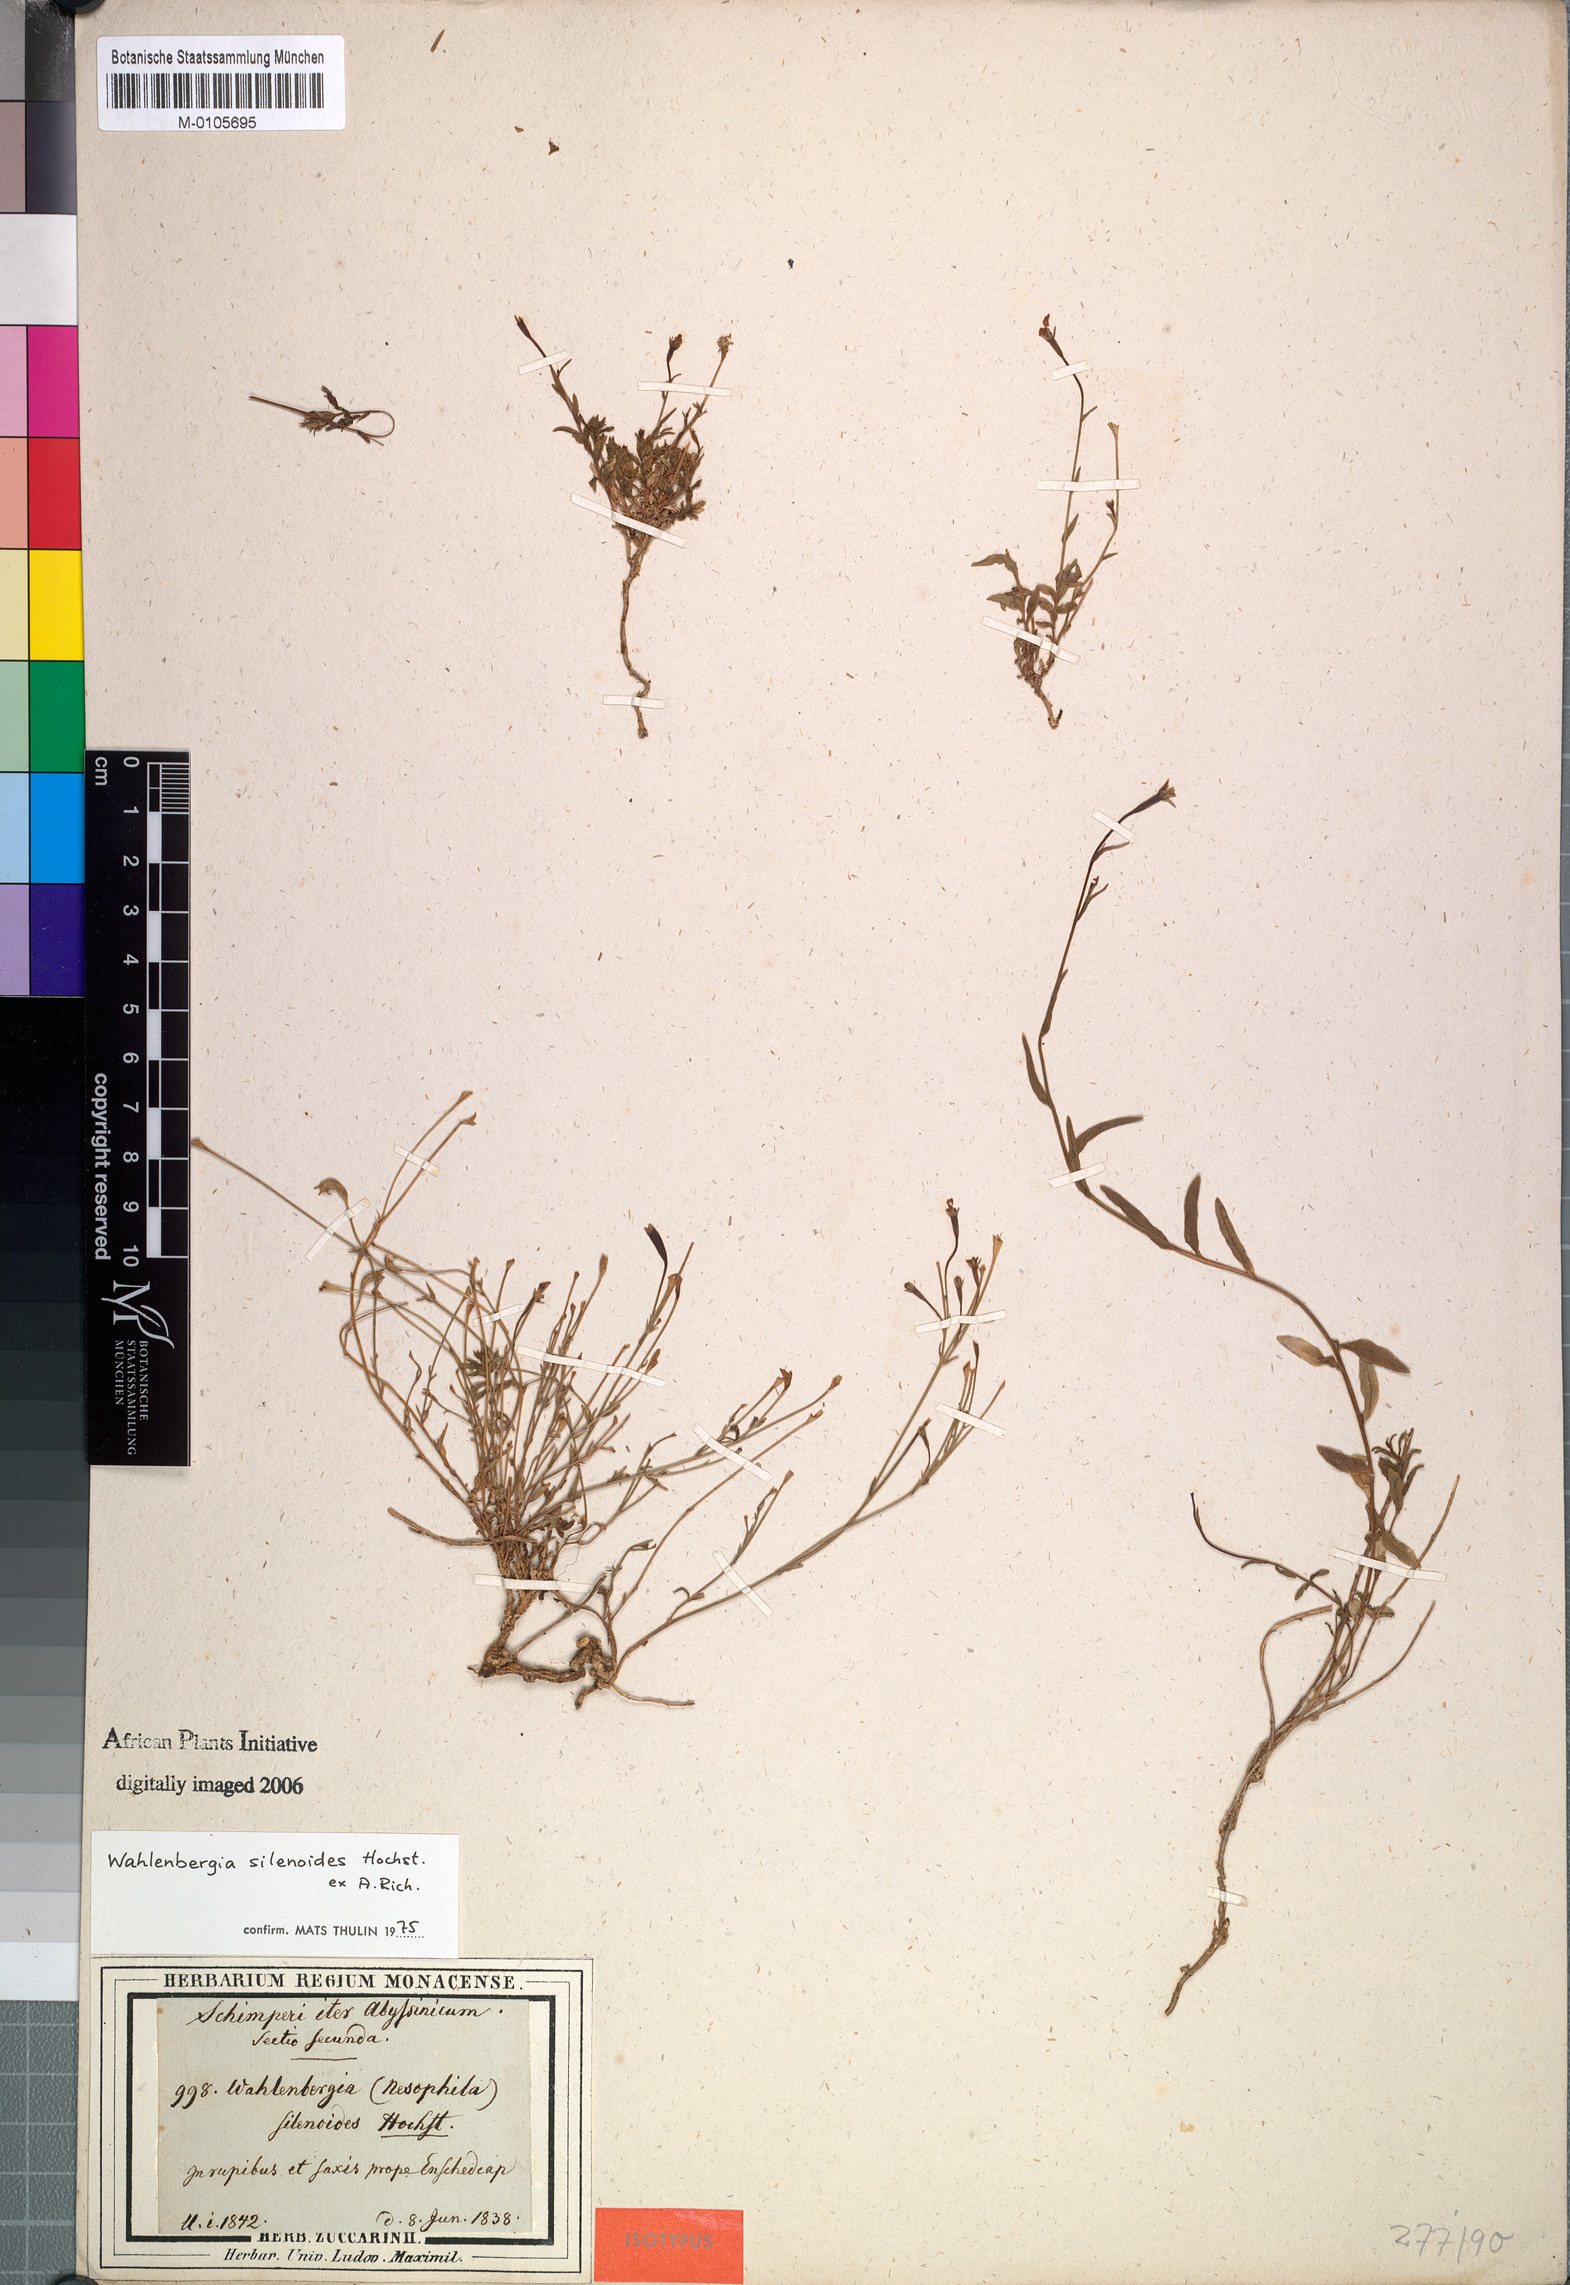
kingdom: Plantae
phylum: Tracheophyta
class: Magnoliopsida
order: Asterales
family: Campanulaceae
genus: Wahlenbergia
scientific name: Wahlenbergia silenoides
